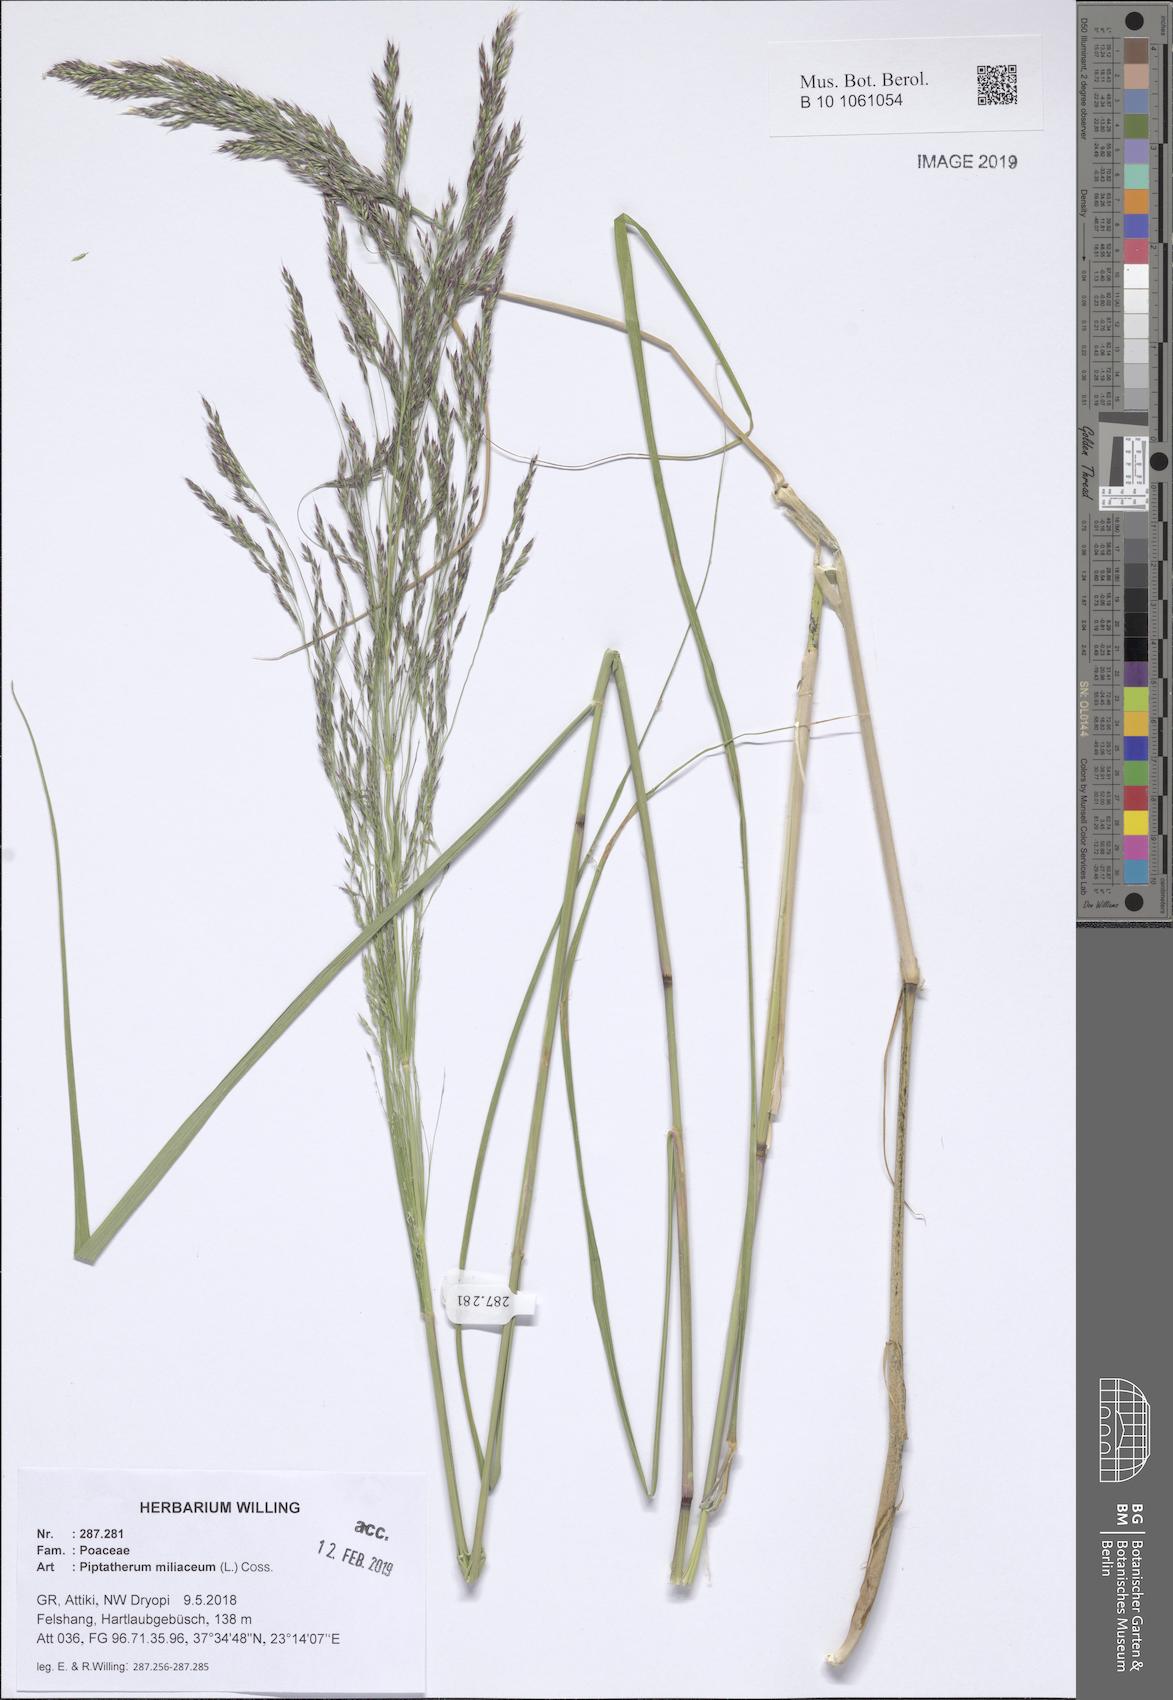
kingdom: Plantae
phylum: Tracheophyta
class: Liliopsida
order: Poales
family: Poaceae
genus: Oloptum
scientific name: Oloptum miliaceum
